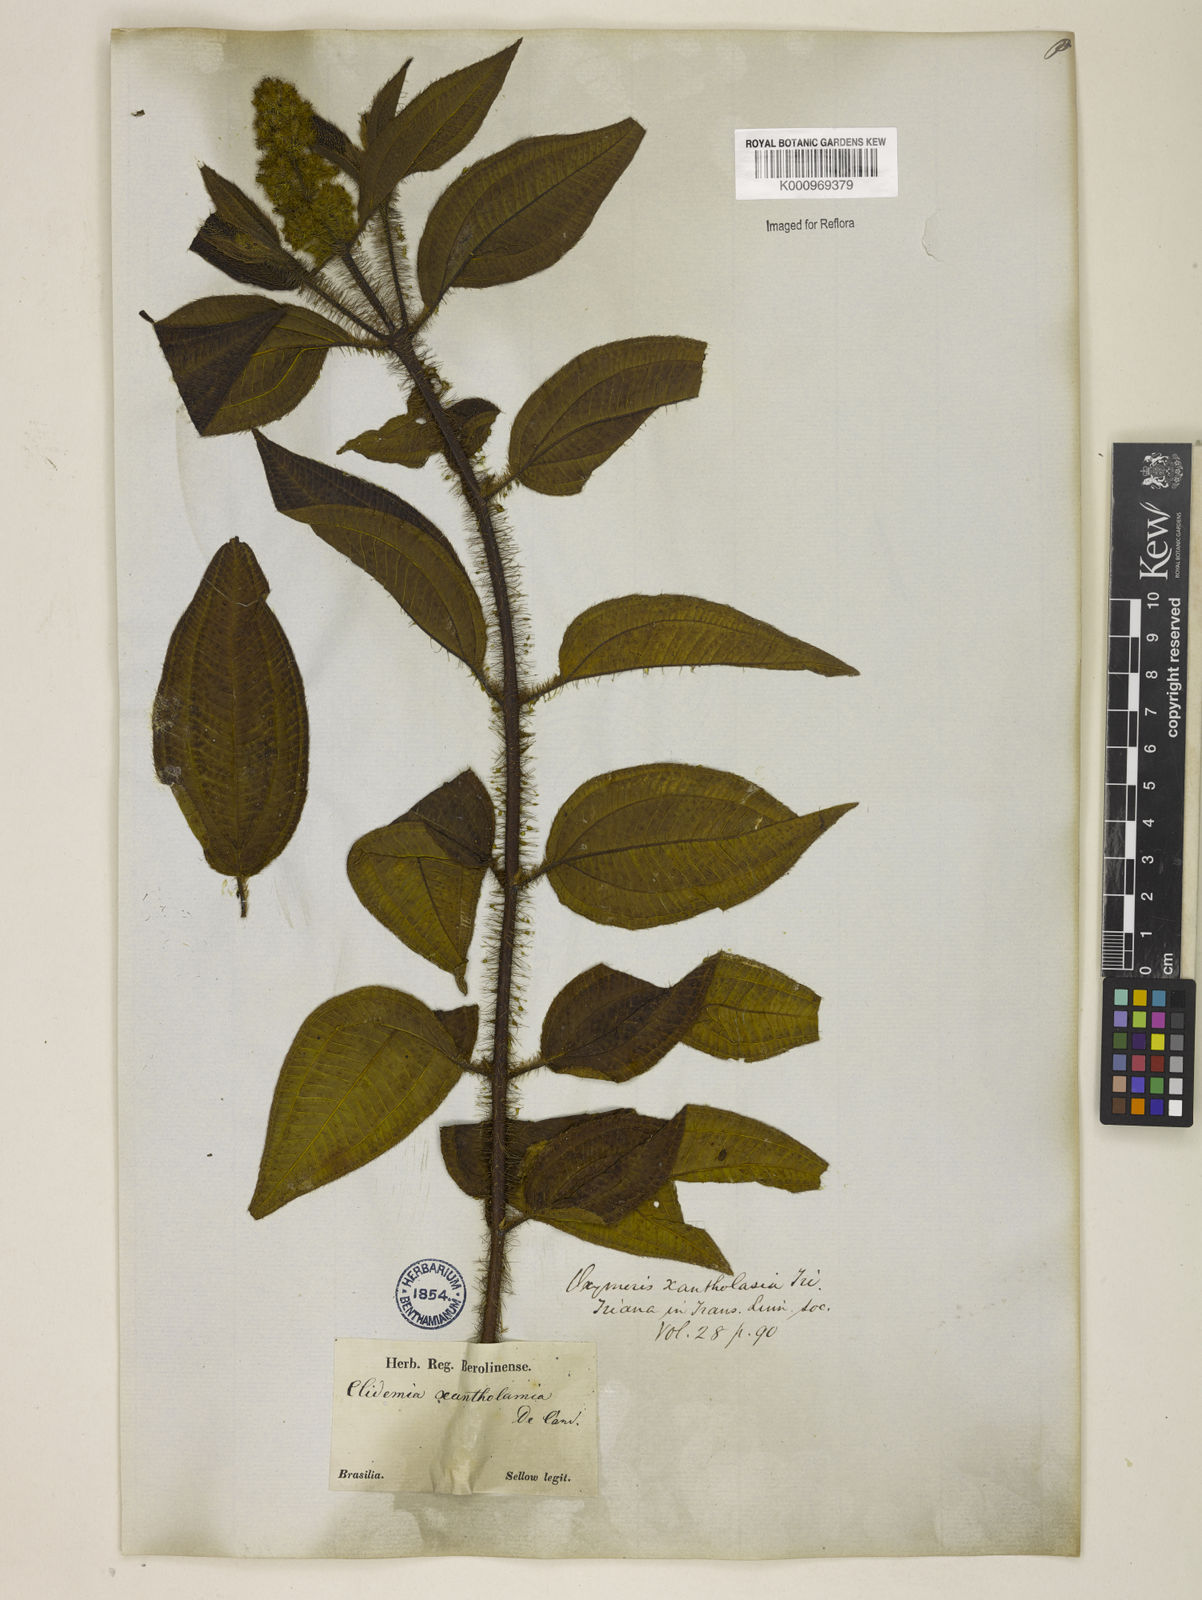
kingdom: Plantae
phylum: Tracheophyta
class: Magnoliopsida
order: Myrtales
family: Melastomataceae
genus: Miconia
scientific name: Miconia xantholasia
